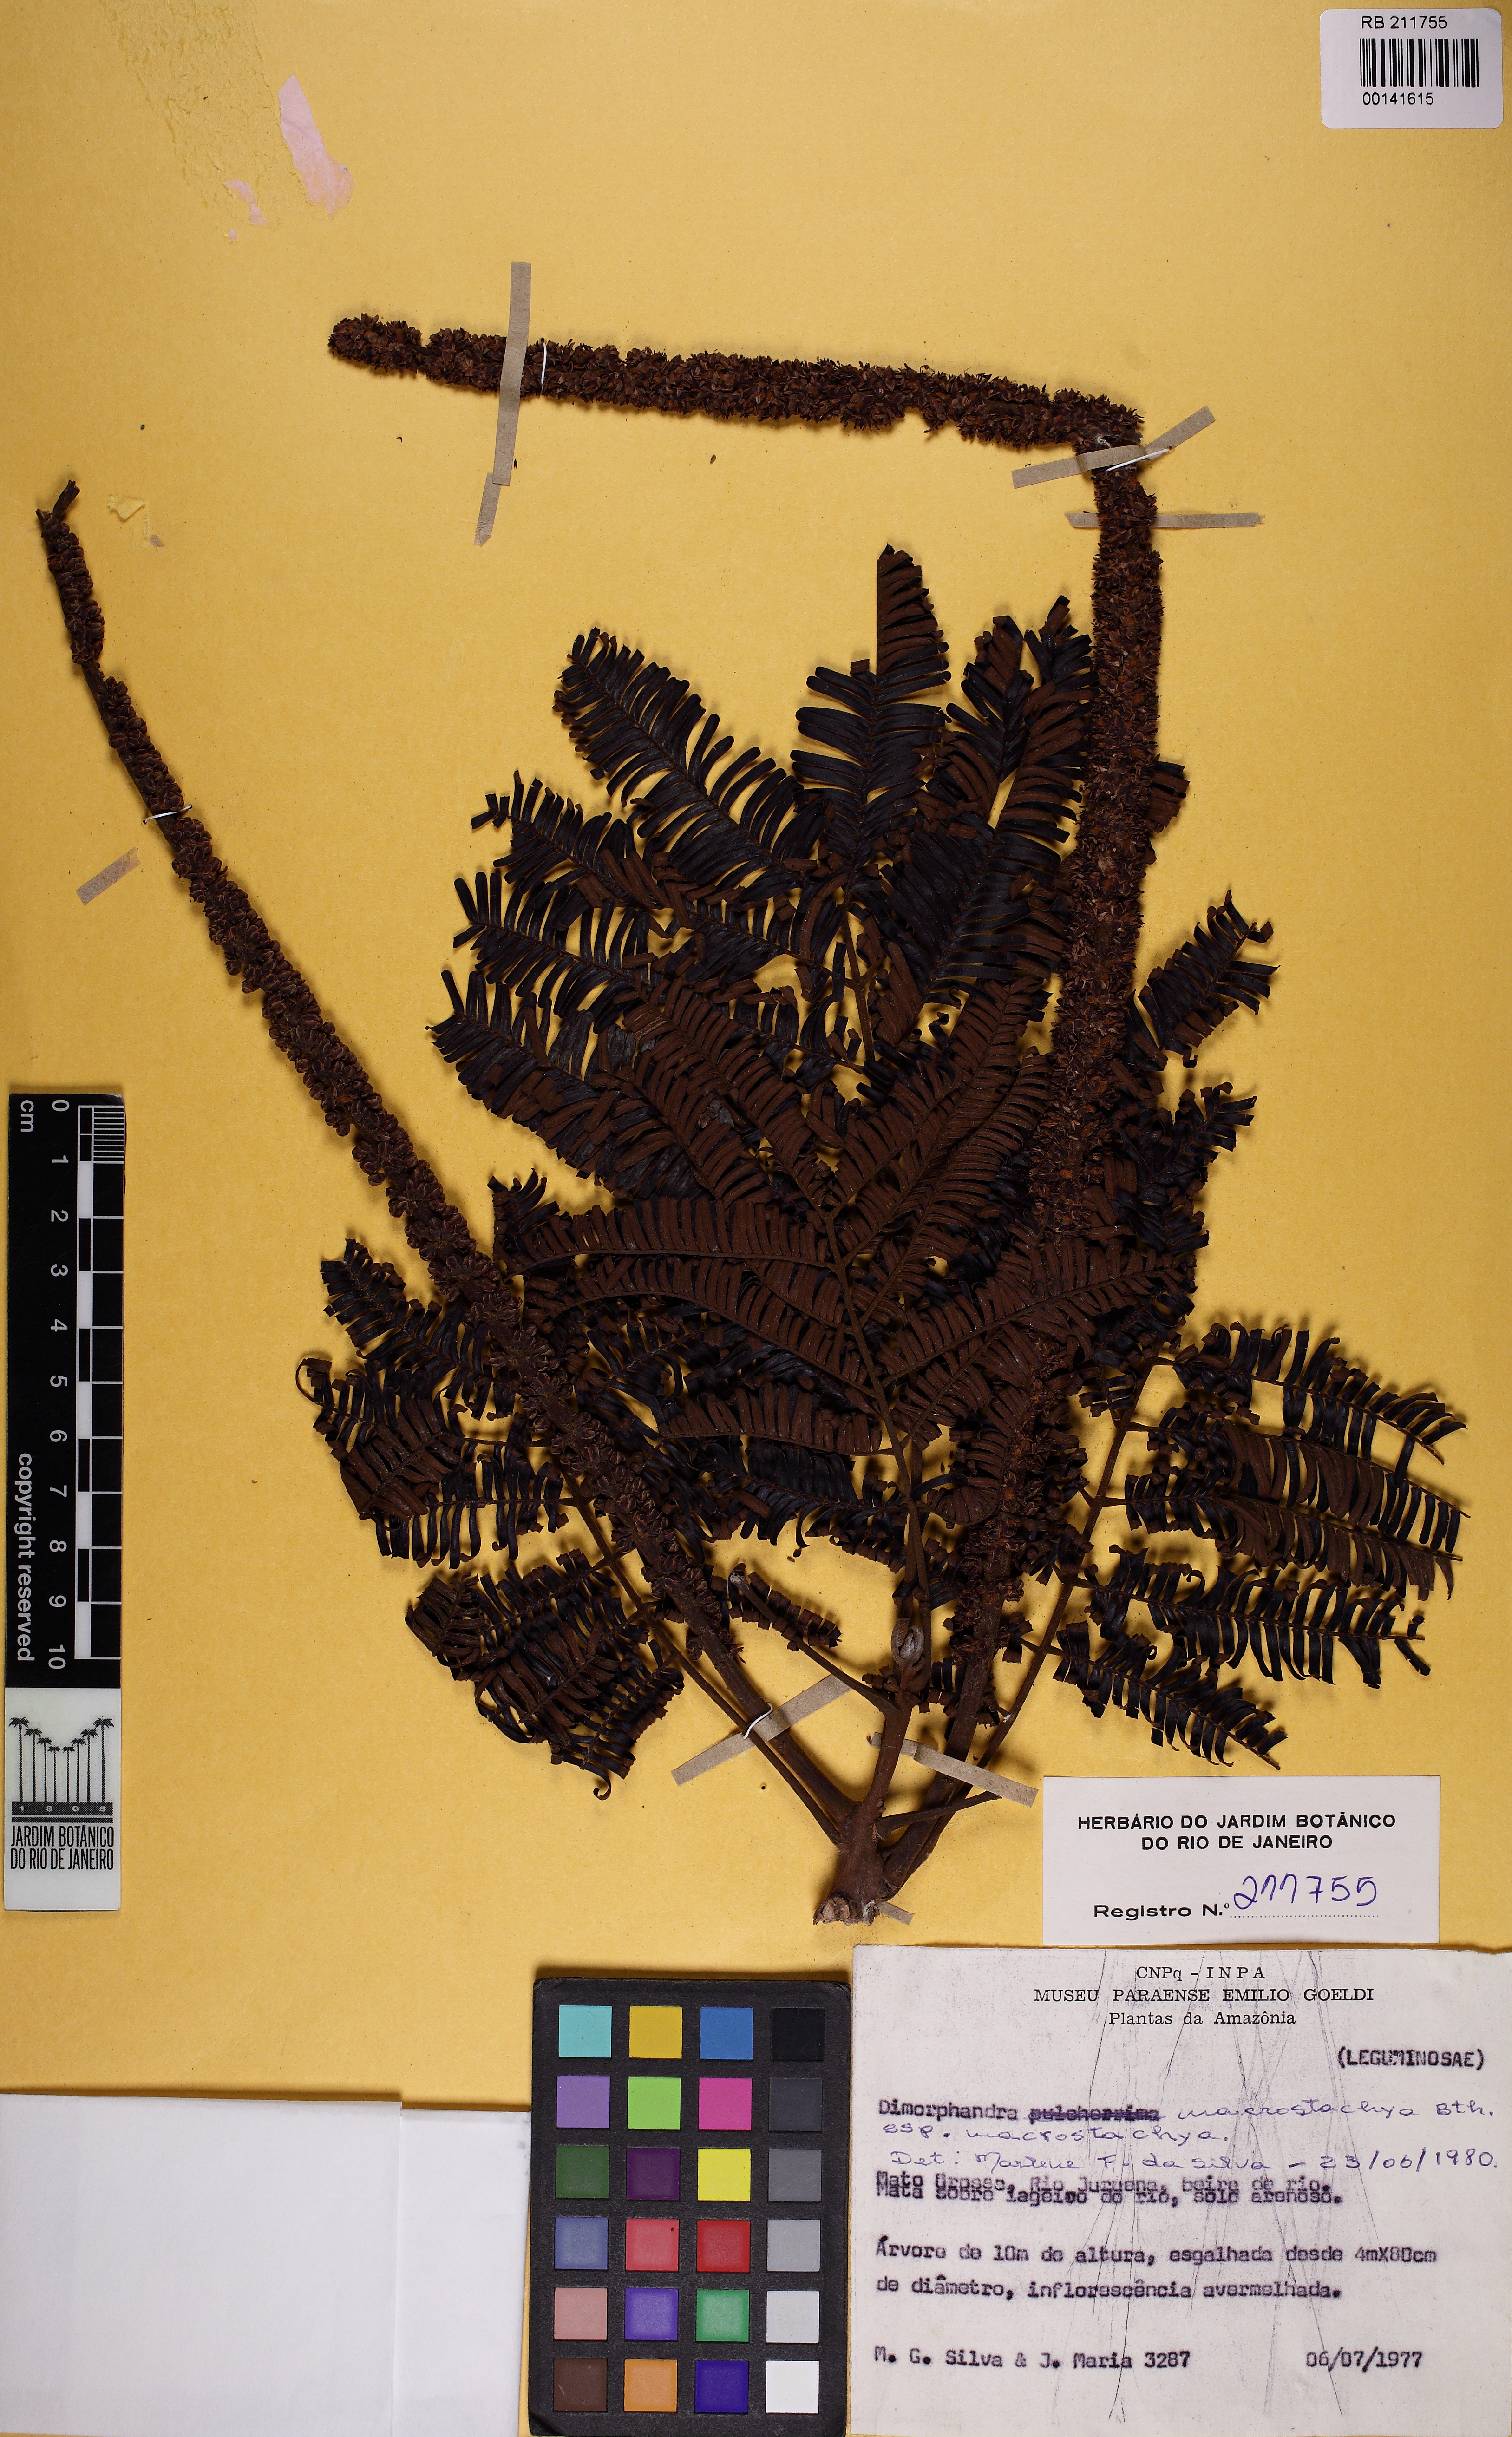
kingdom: Plantae
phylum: Tracheophyta
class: Magnoliopsida
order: Fabales
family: Fabaceae
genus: Dimorphandra
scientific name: Dimorphandra cuprea
